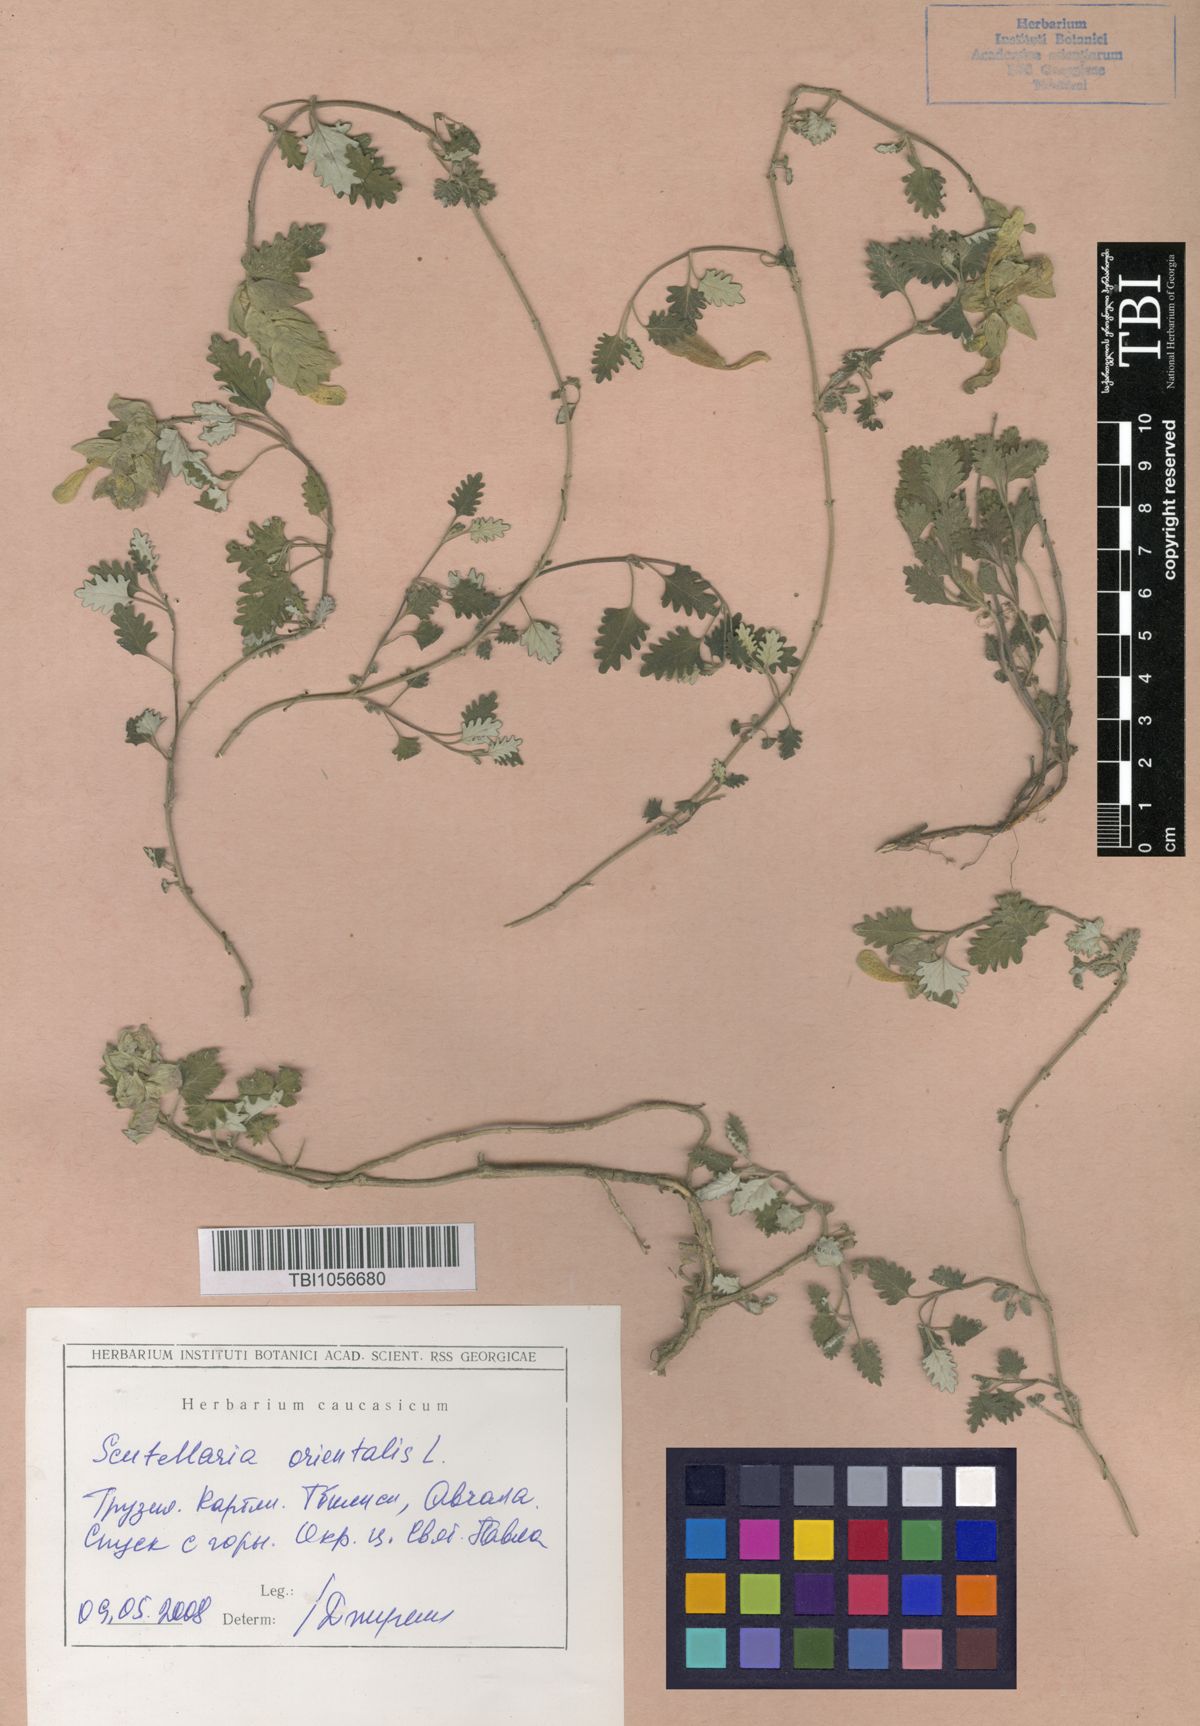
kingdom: Plantae
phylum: Tracheophyta
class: Magnoliopsida
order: Lamiales
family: Lamiaceae
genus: Scutellaria
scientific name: Scutellaria orientalis
